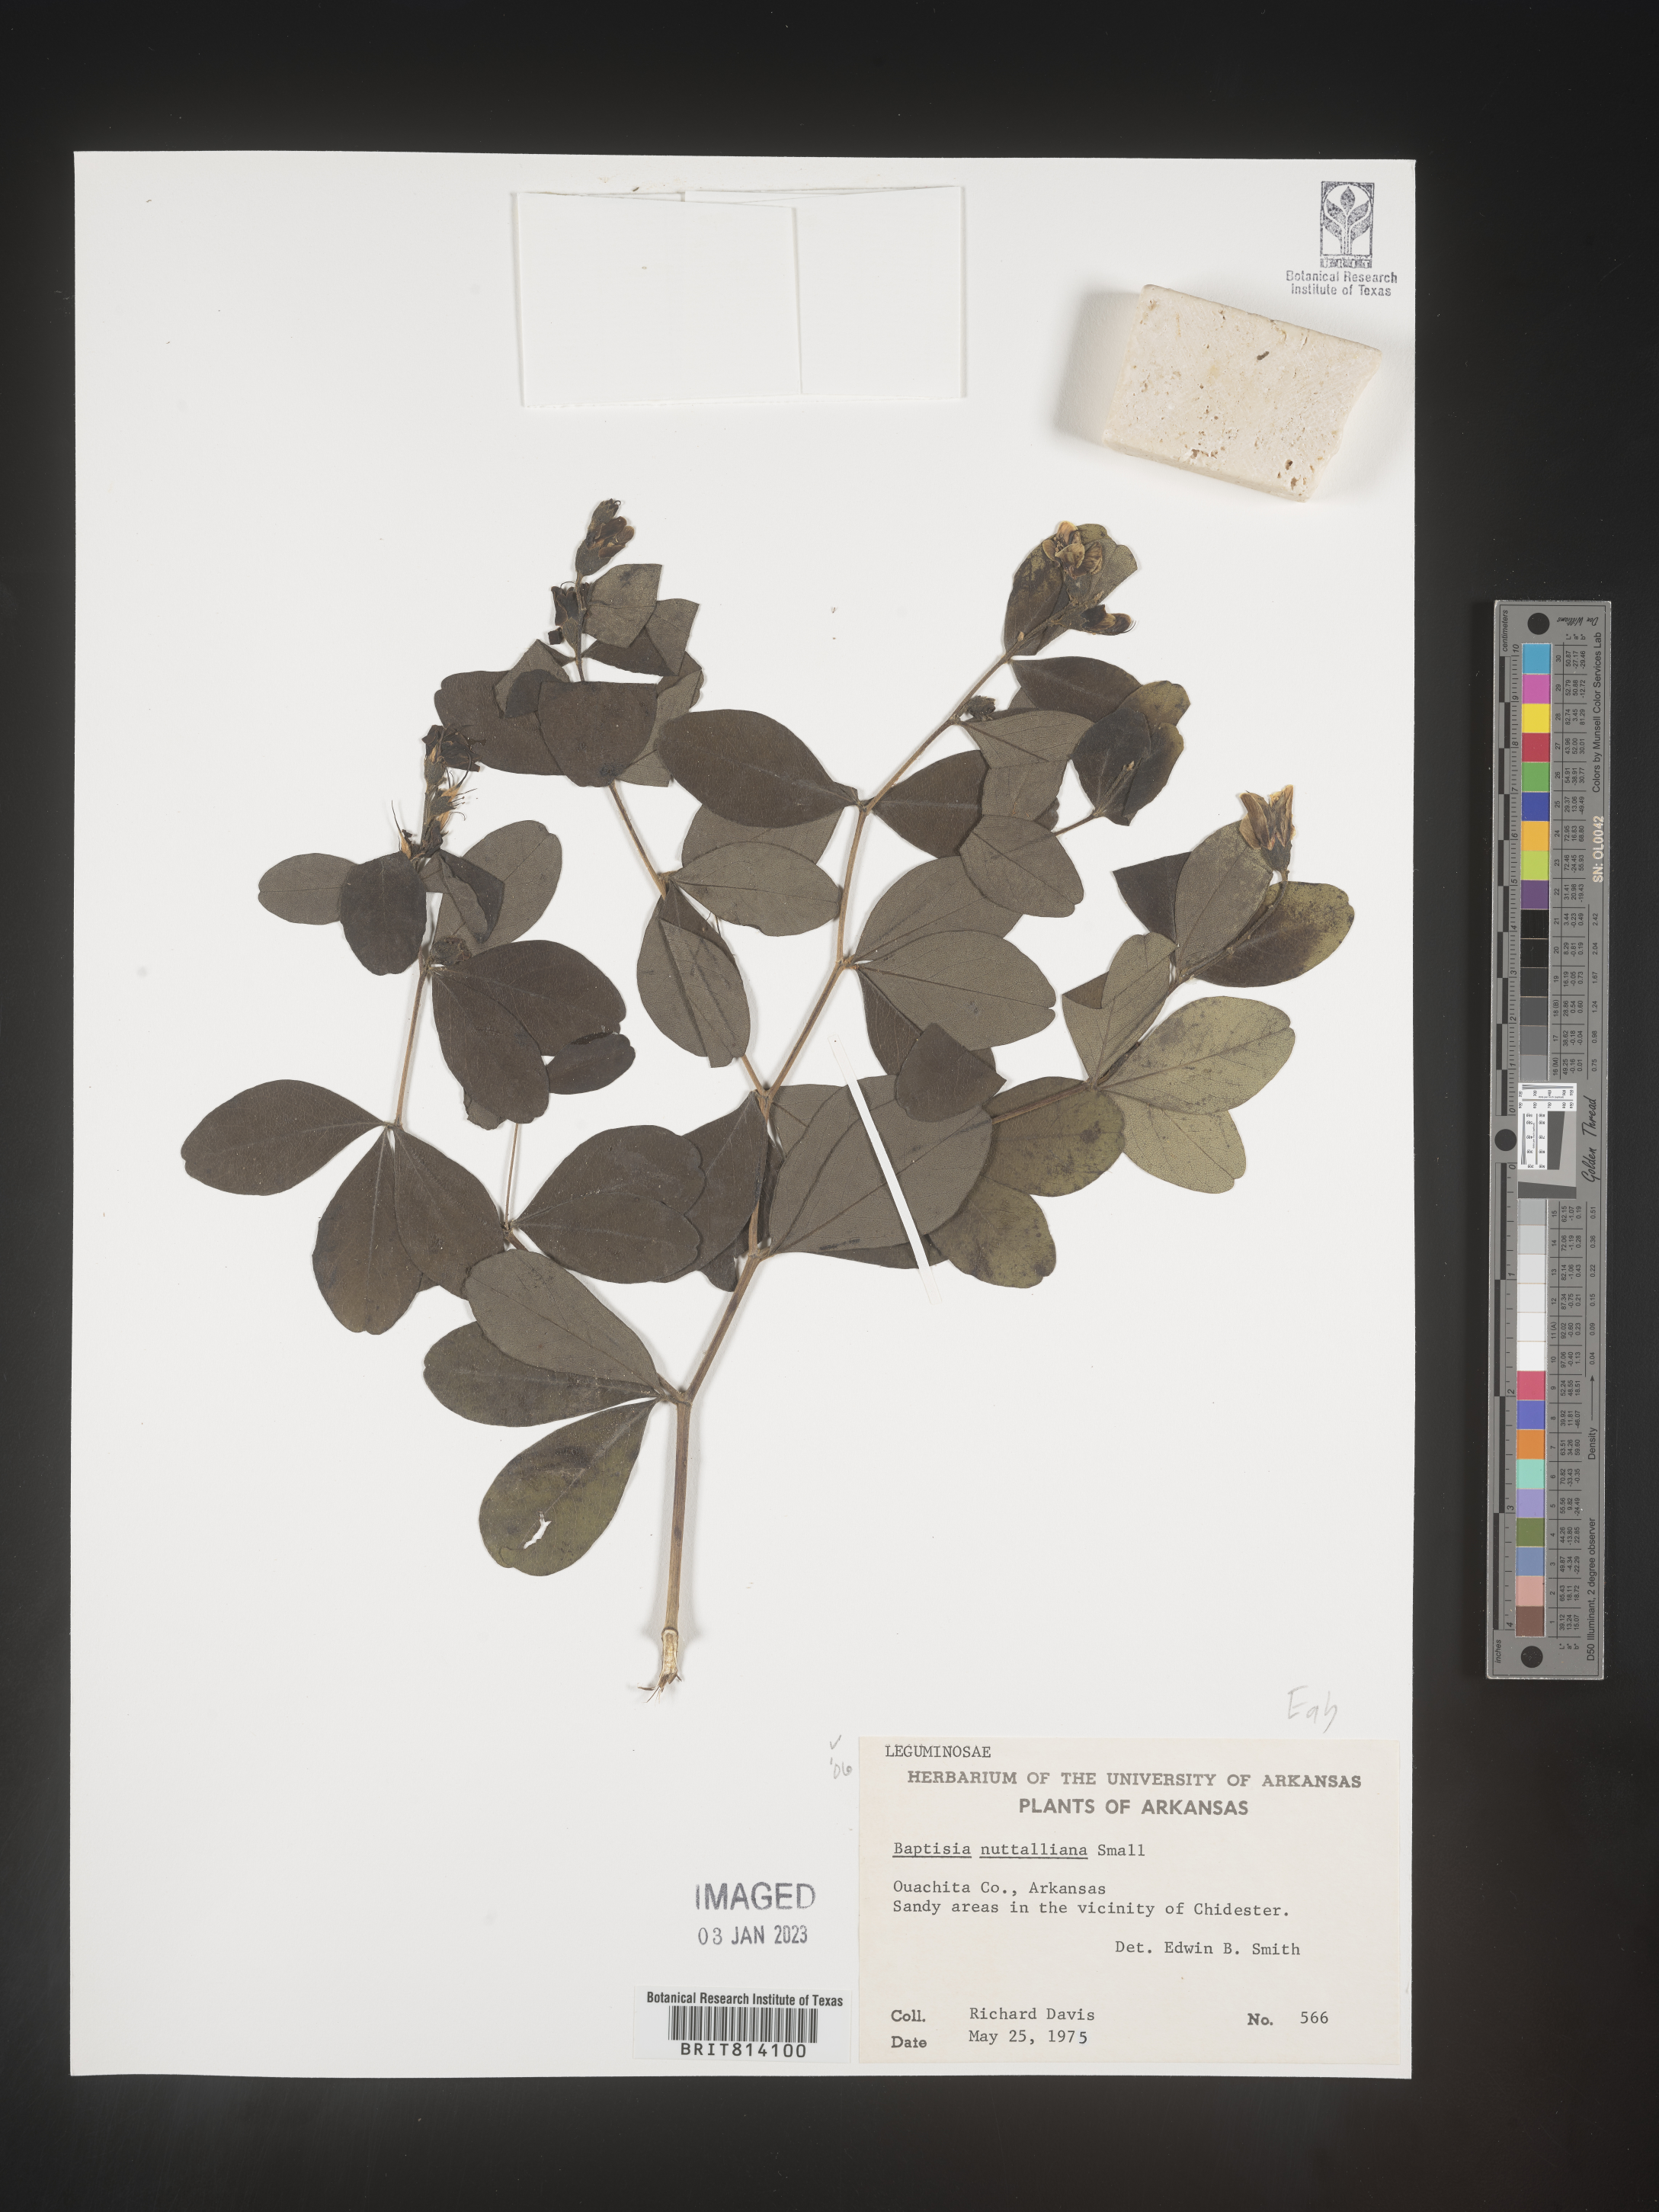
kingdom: Plantae
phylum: Tracheophyta
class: Magnoliopsida
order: Fabales
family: Fabaceae
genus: Baptisia
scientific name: Baptisia nuttalliana
